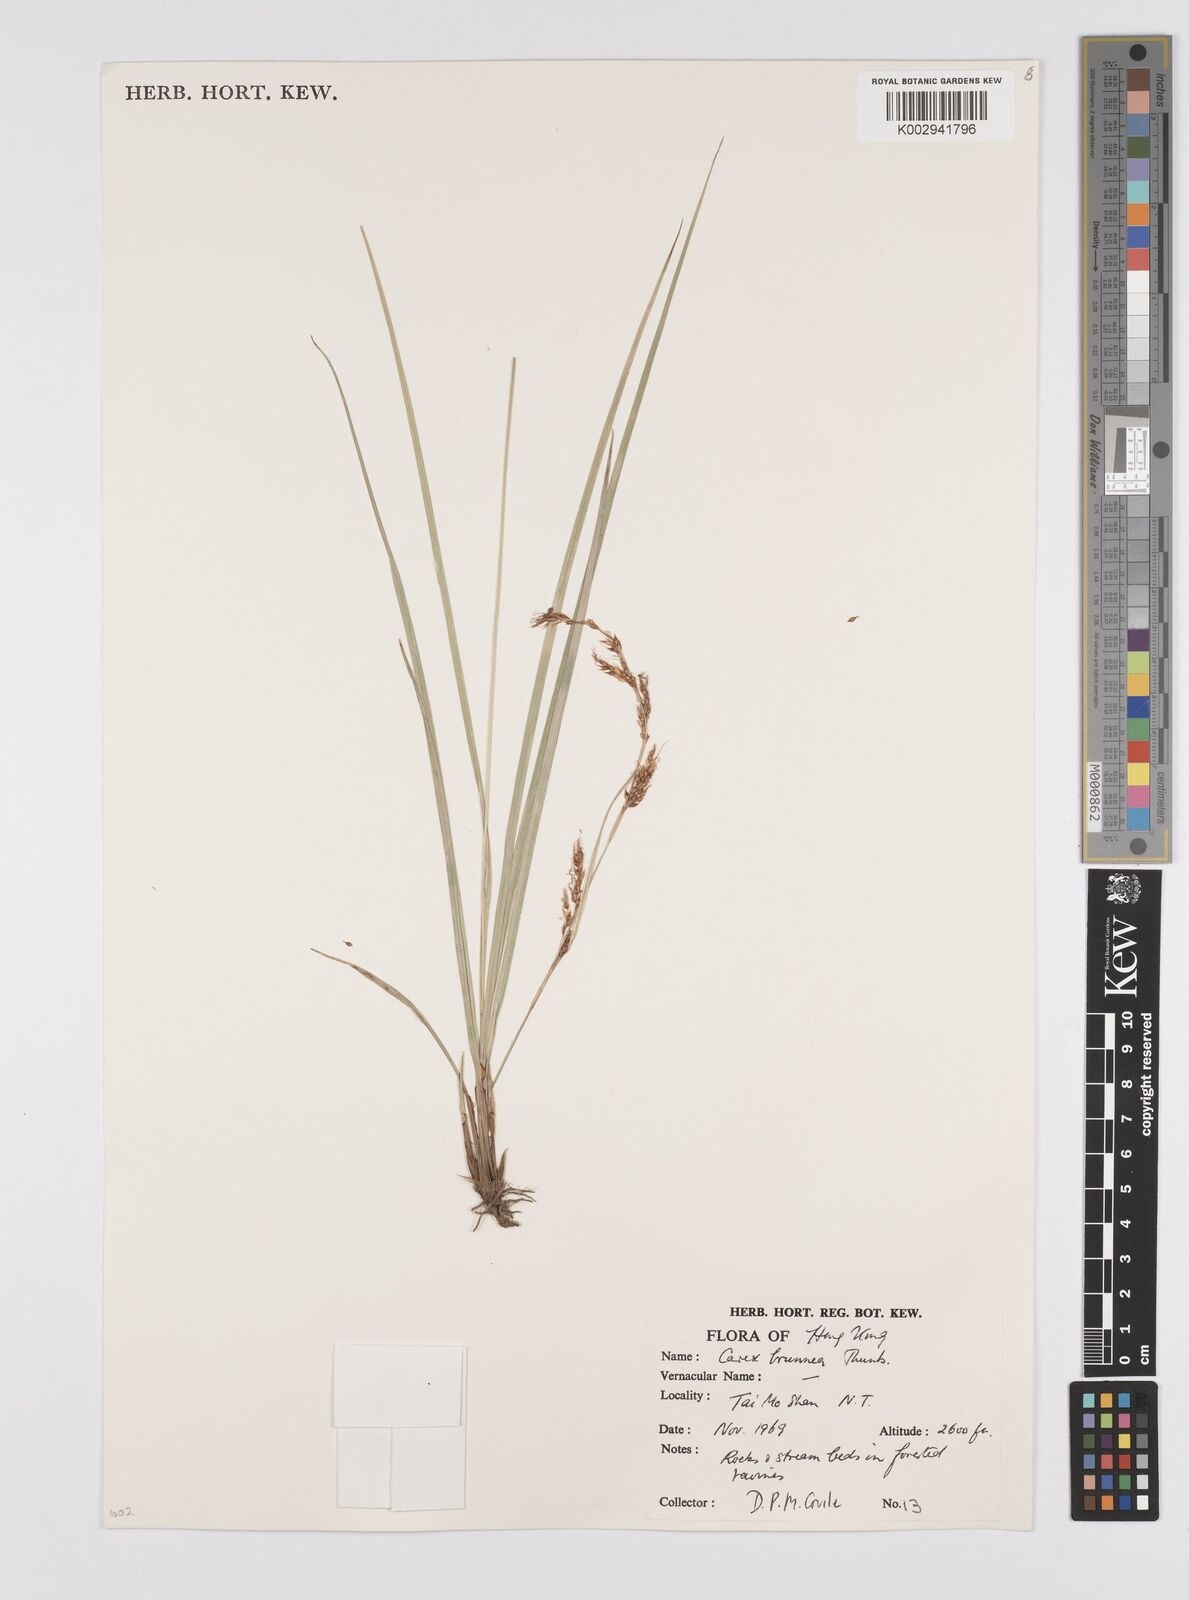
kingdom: Plantae
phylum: Tracheophyta
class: Liliopsida
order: Poales
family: Cyperaceae
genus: Carex
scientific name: Carex brunnea
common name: Greater brown sedge
